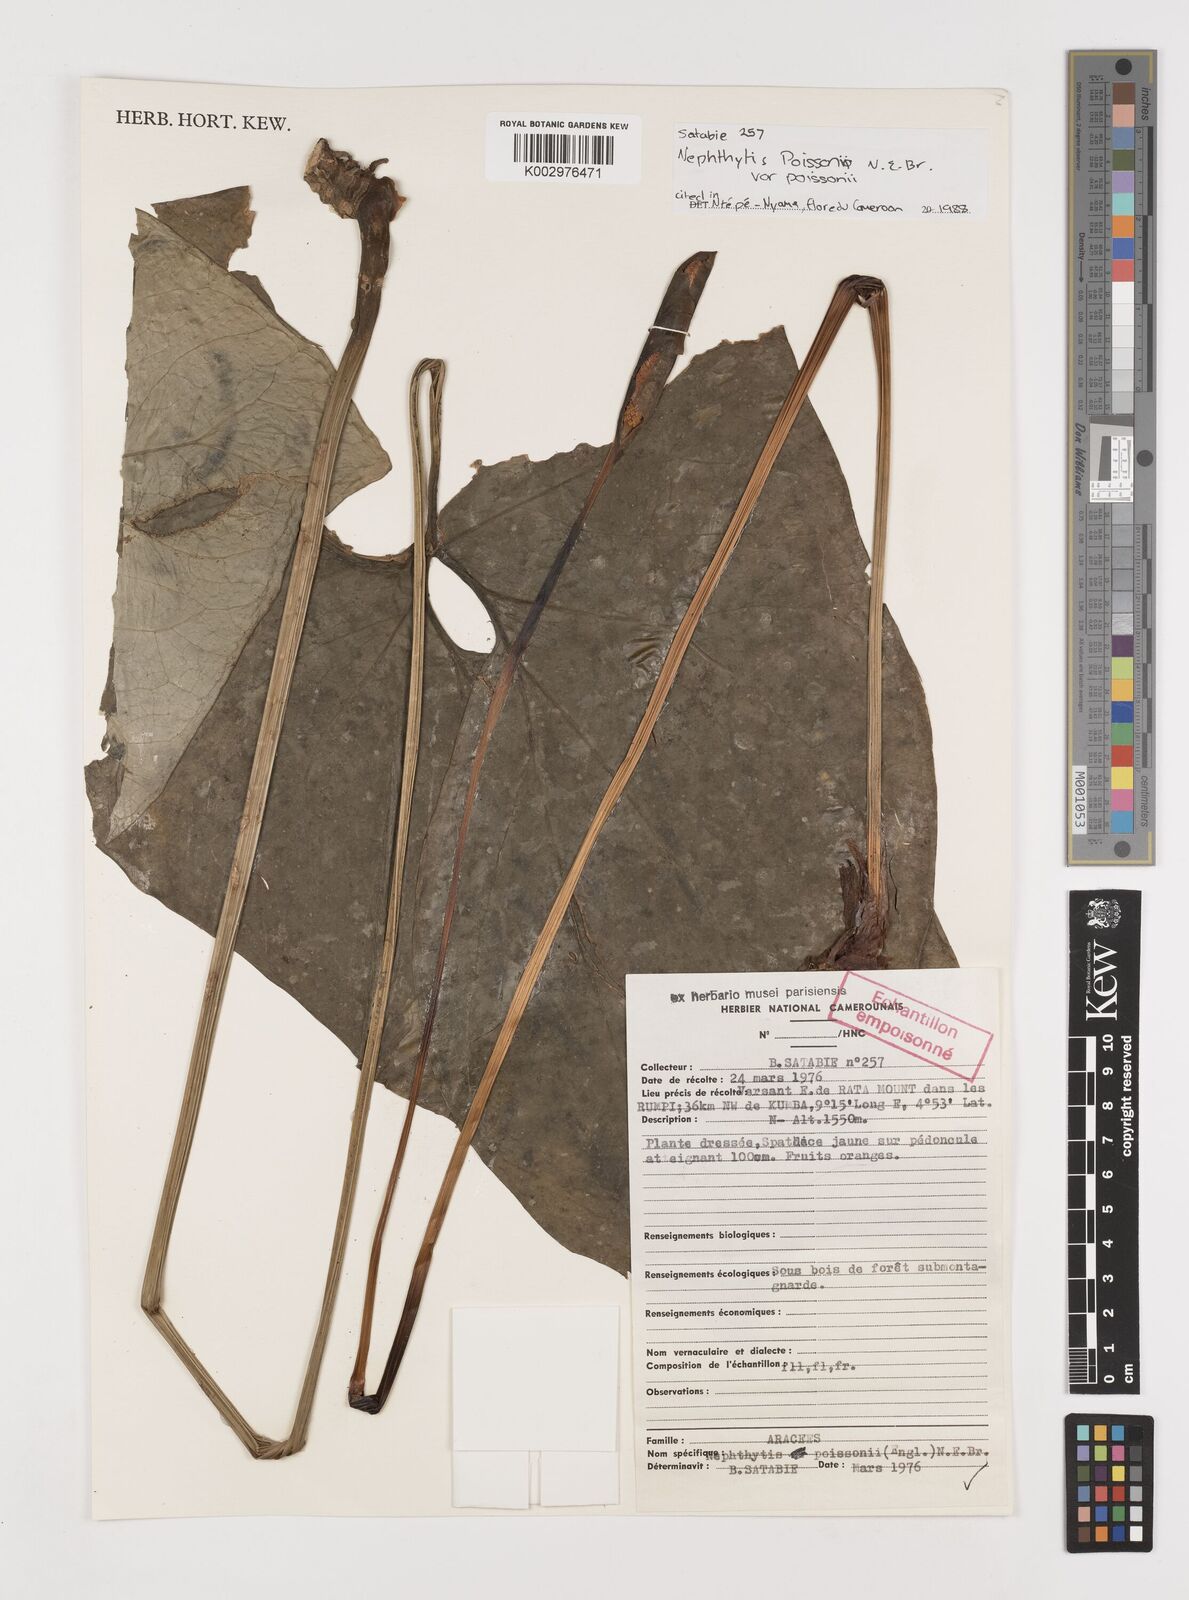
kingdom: Plantae
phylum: Tracheophyta
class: Liliopsida
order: Alismatales
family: Araceae
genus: Nephthytis
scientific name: Nephthytis poissonii
